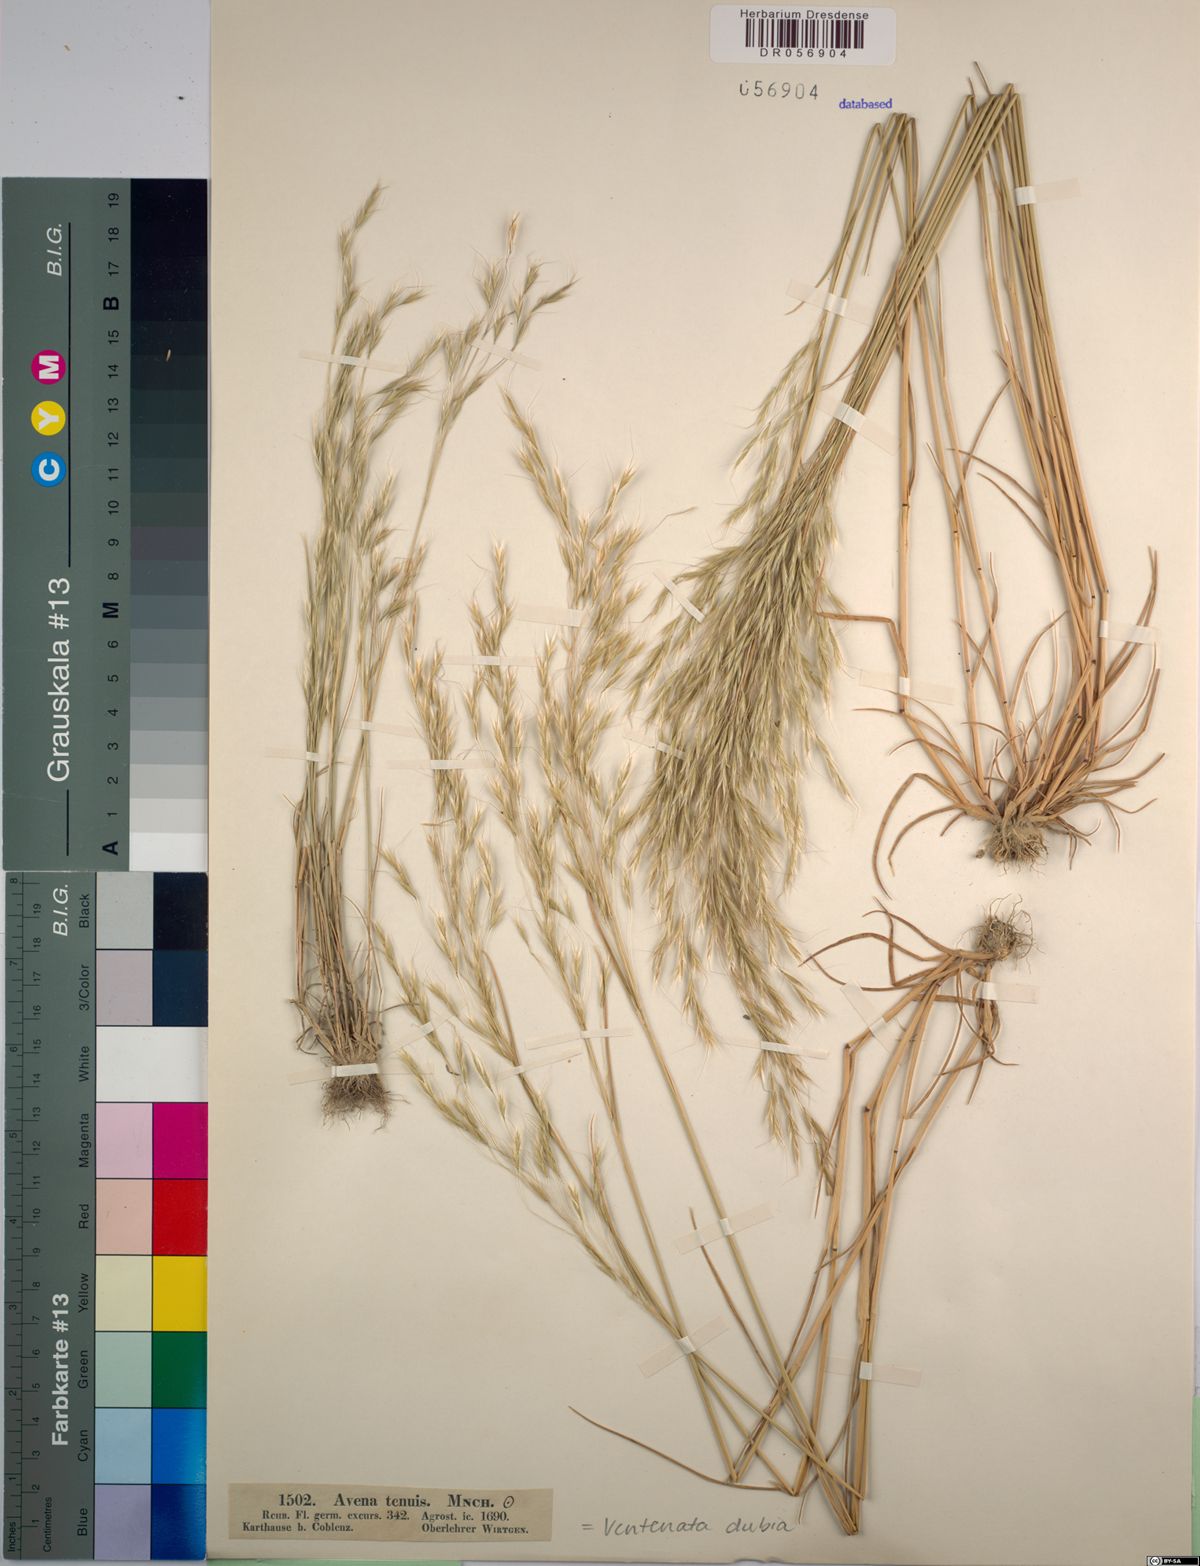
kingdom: Plantae
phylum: Tracheophyta
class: Liliopsida
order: Poales
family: Poaceae
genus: Ventenata
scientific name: Ventenata dubia
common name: North africa grass
